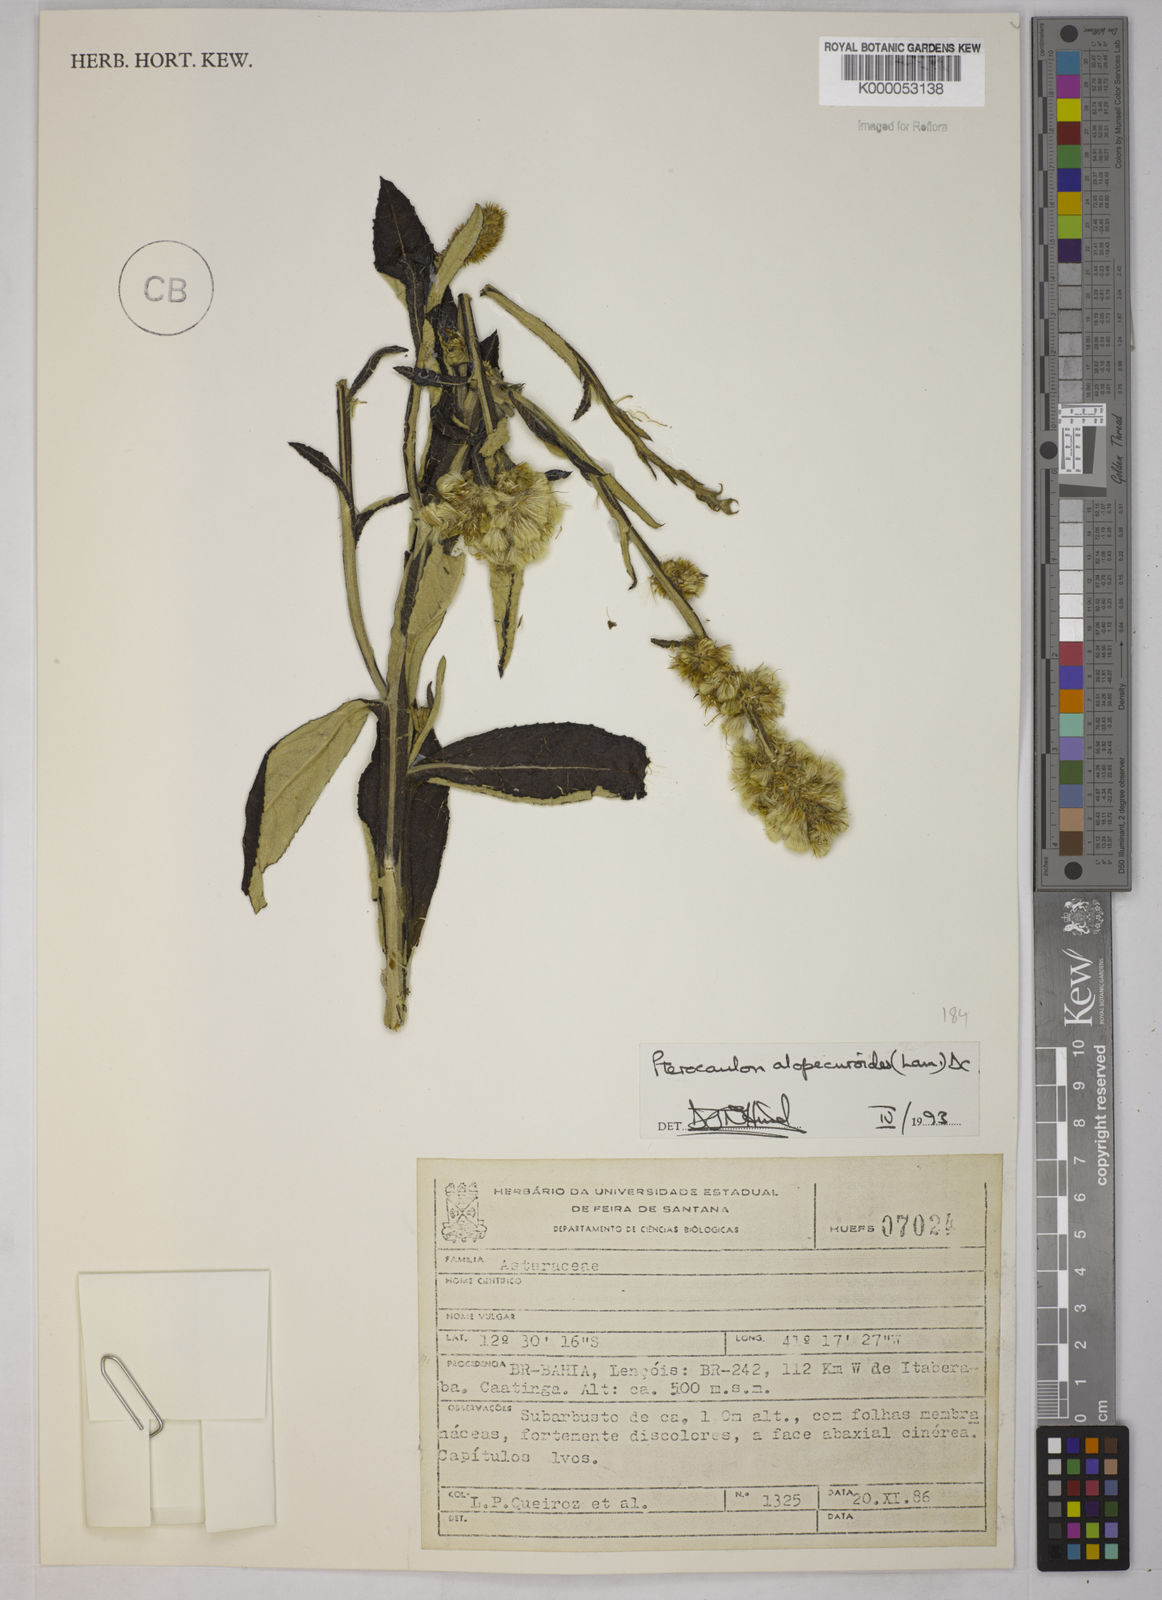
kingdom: Plantae
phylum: Tracheophyta
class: Magnoliopsida
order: Asterales
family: Asteraceae
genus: Pterocaulon
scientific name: Pterocaulon alopecuroides
